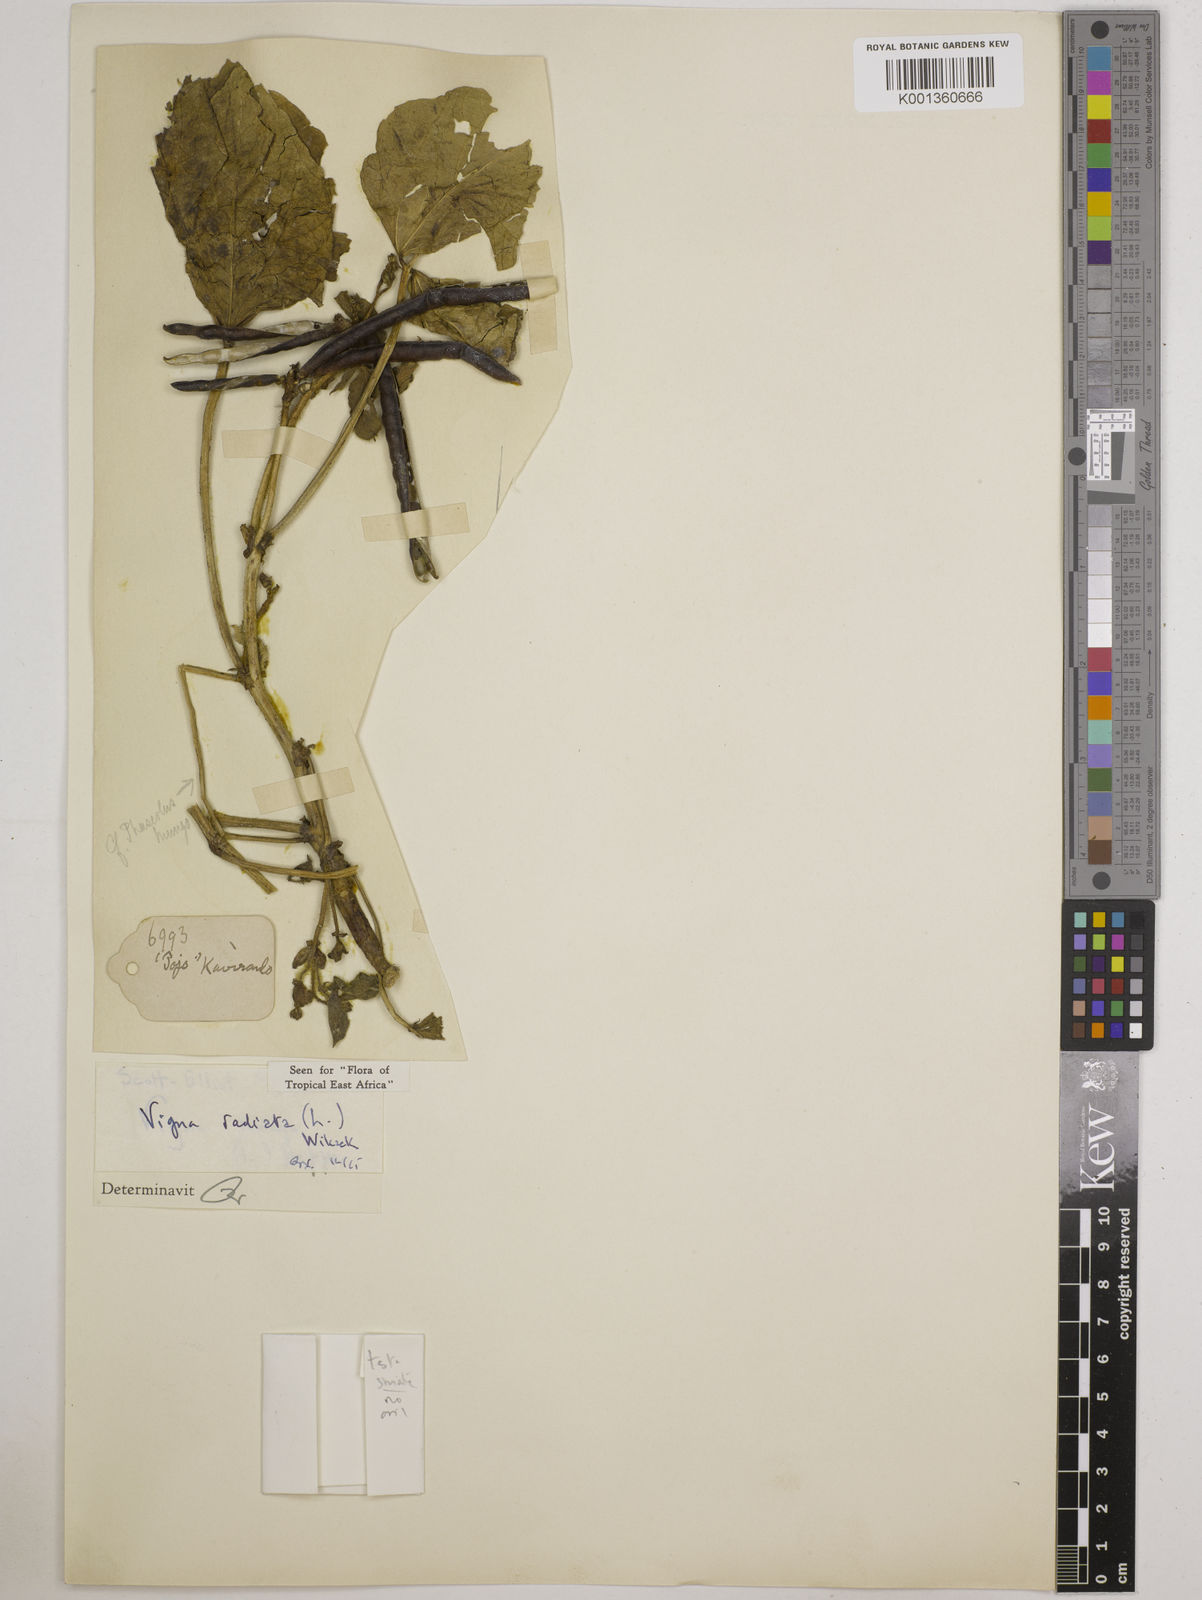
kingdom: Plantae
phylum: Tracheophyta
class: Magnoliopsida
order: Fabales
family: Fabaceae
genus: Vigna
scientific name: Vigna radiata
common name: Mung-bean
